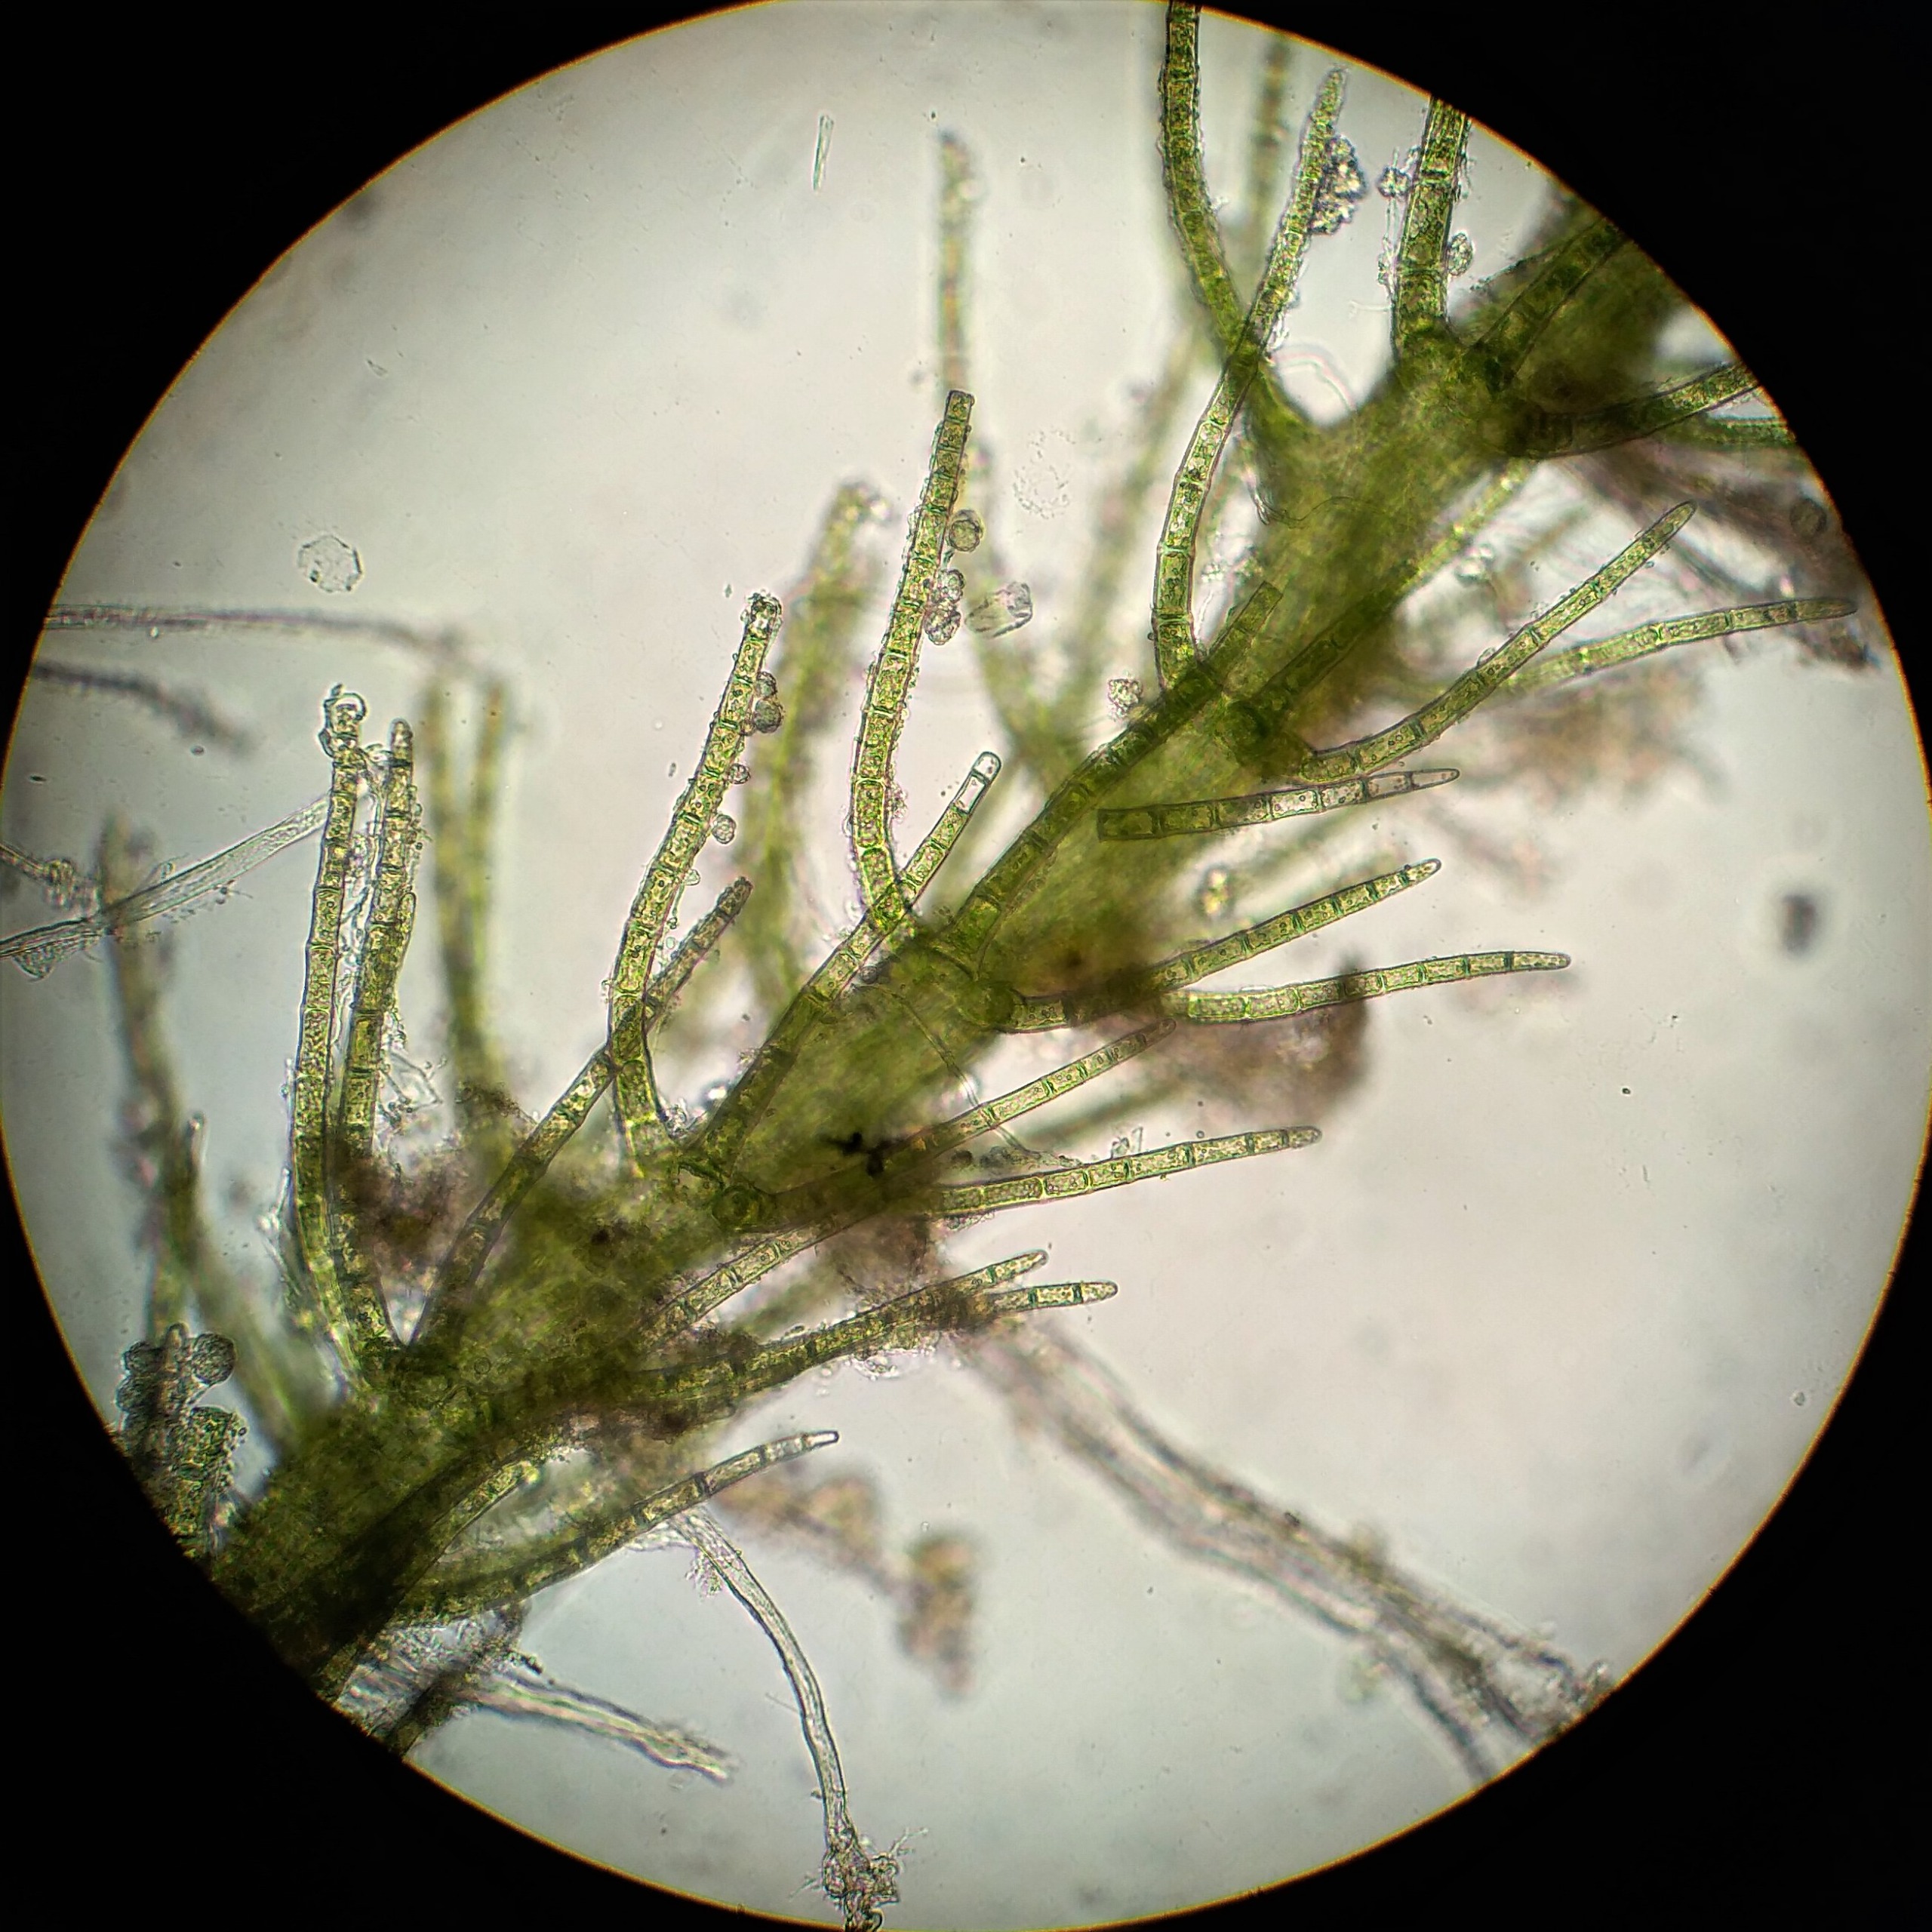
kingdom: Plantae
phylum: Marchantiophyta
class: Jungermanniopsida
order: Jungermanniales
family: Blepharostomataceae
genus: Blepharostoma
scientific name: Blepharostoma trichophyllum
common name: Almindelig hårfligmos
